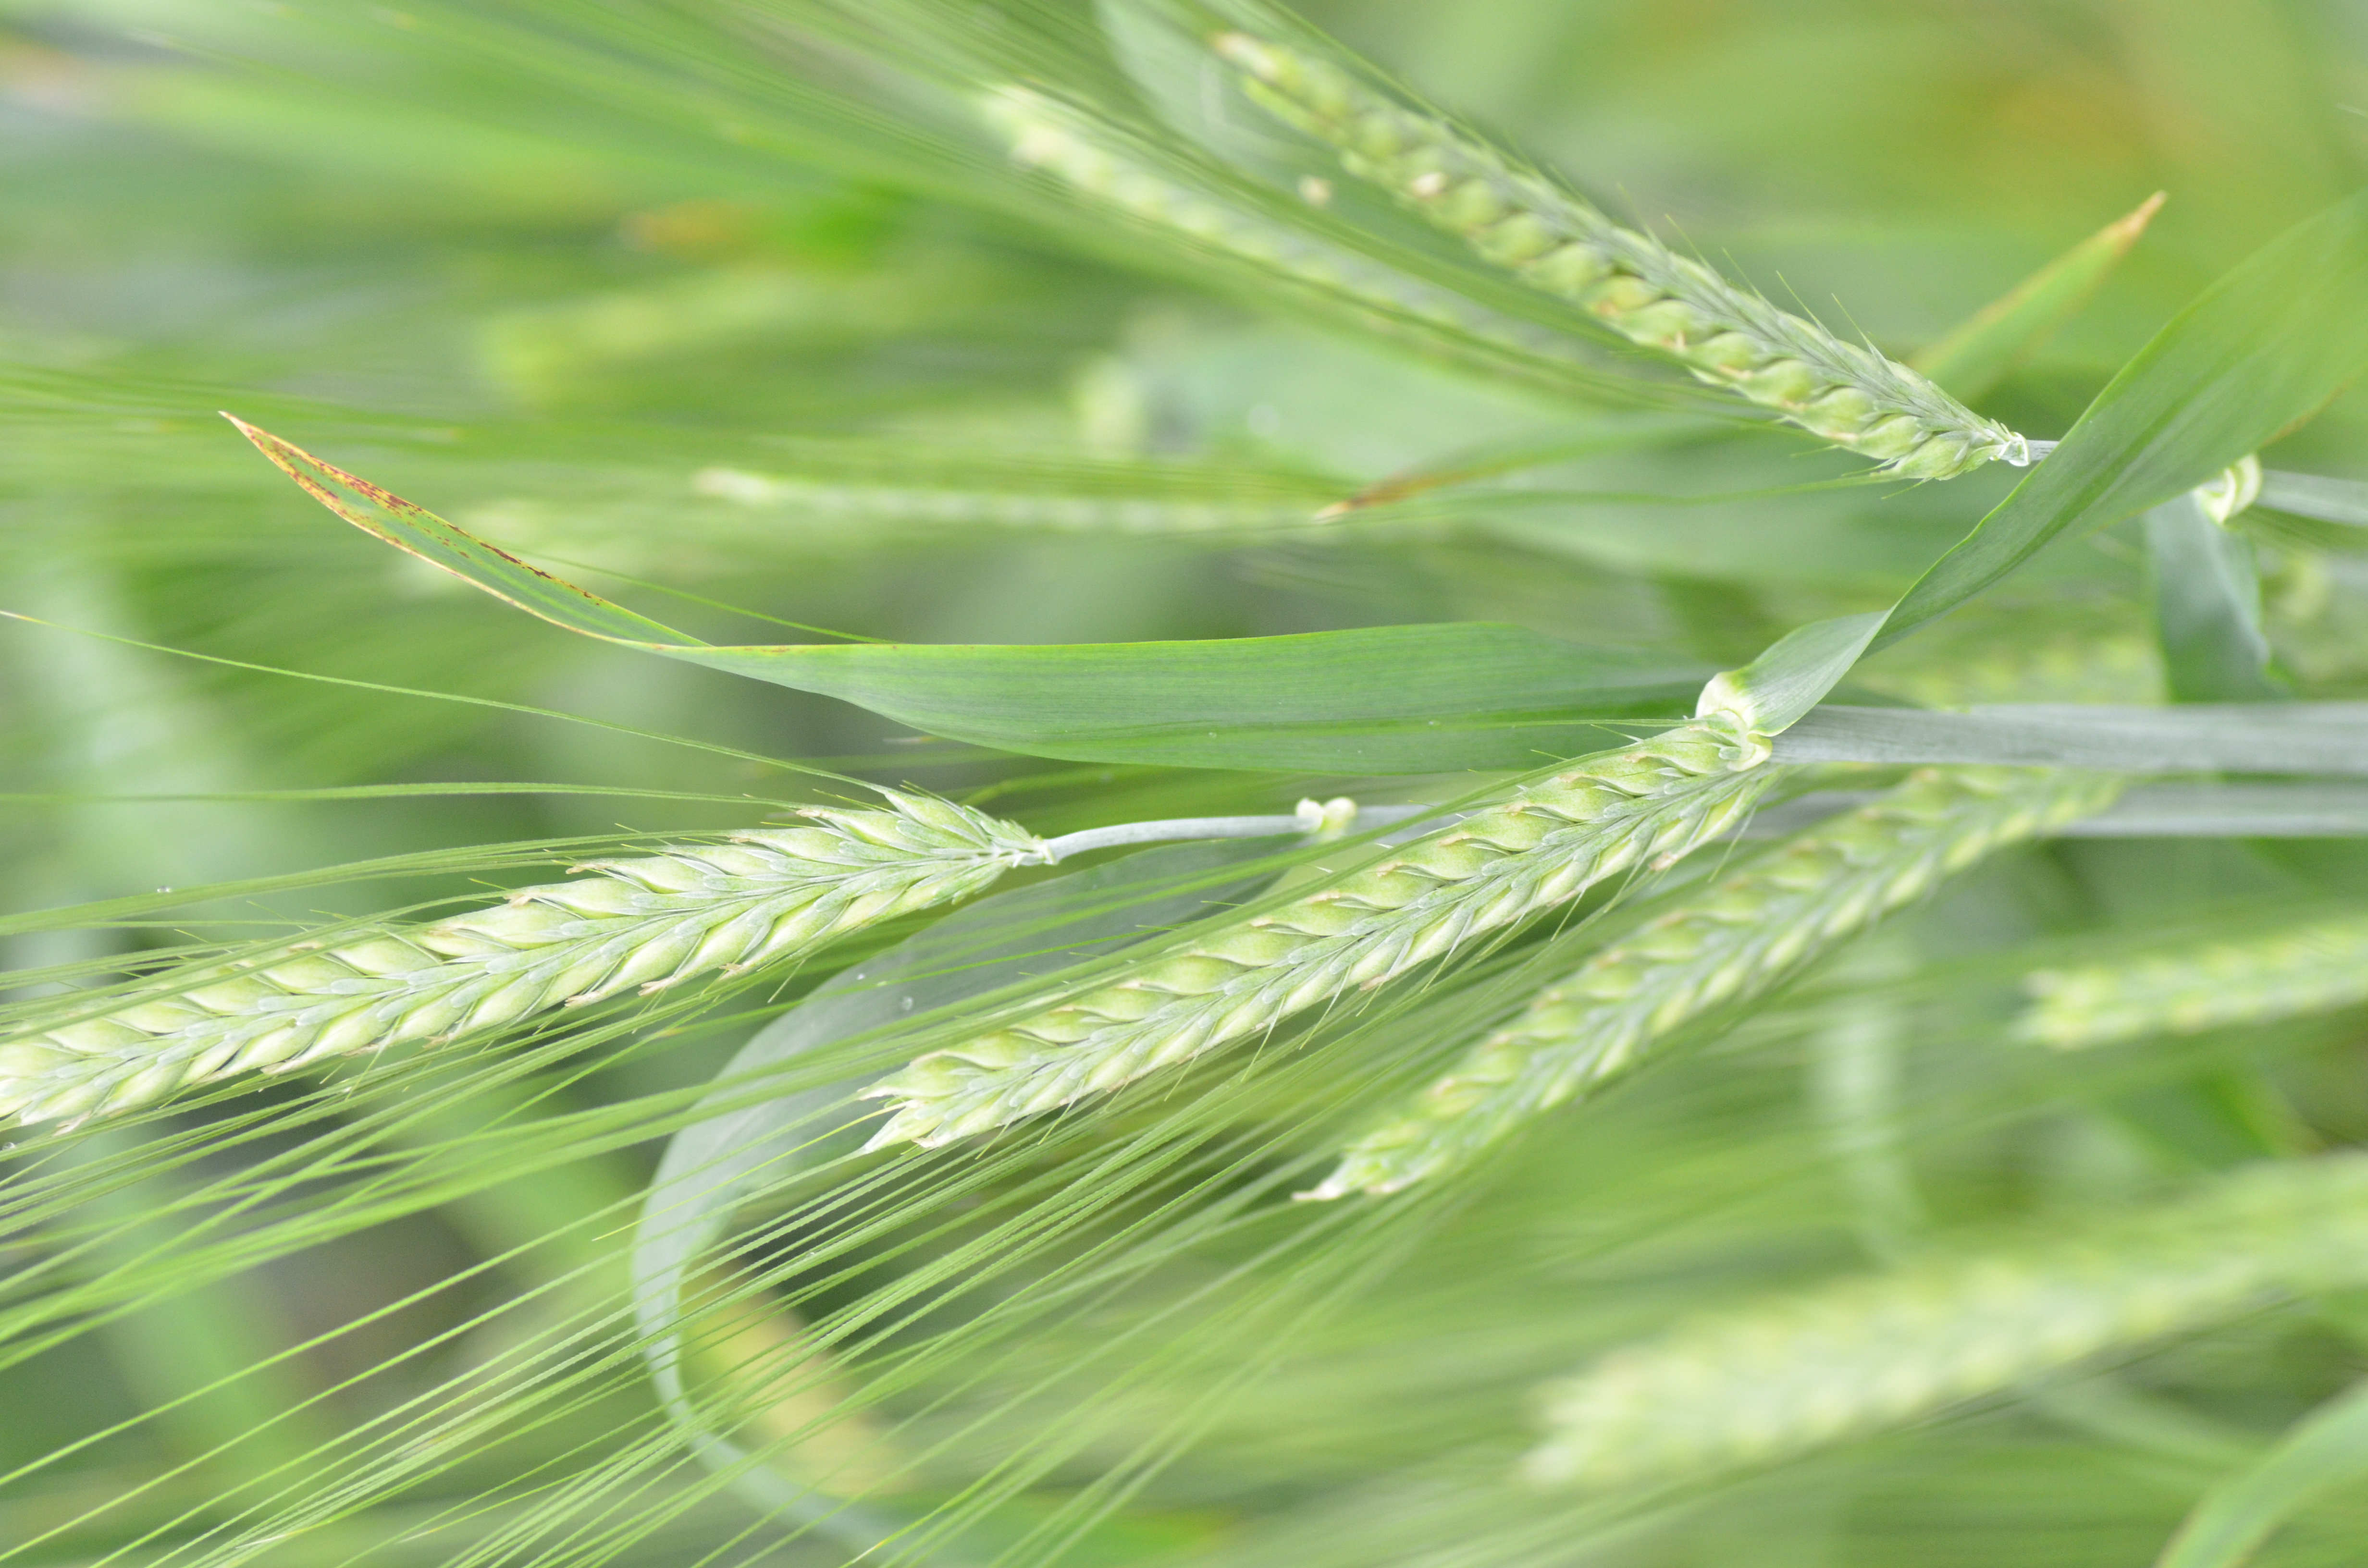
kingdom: Plantae
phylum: Tracheophyta
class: Liliopsida
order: Poales
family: Poaceae
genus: Hordeum
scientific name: Hordeum vulgare
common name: Common barley
